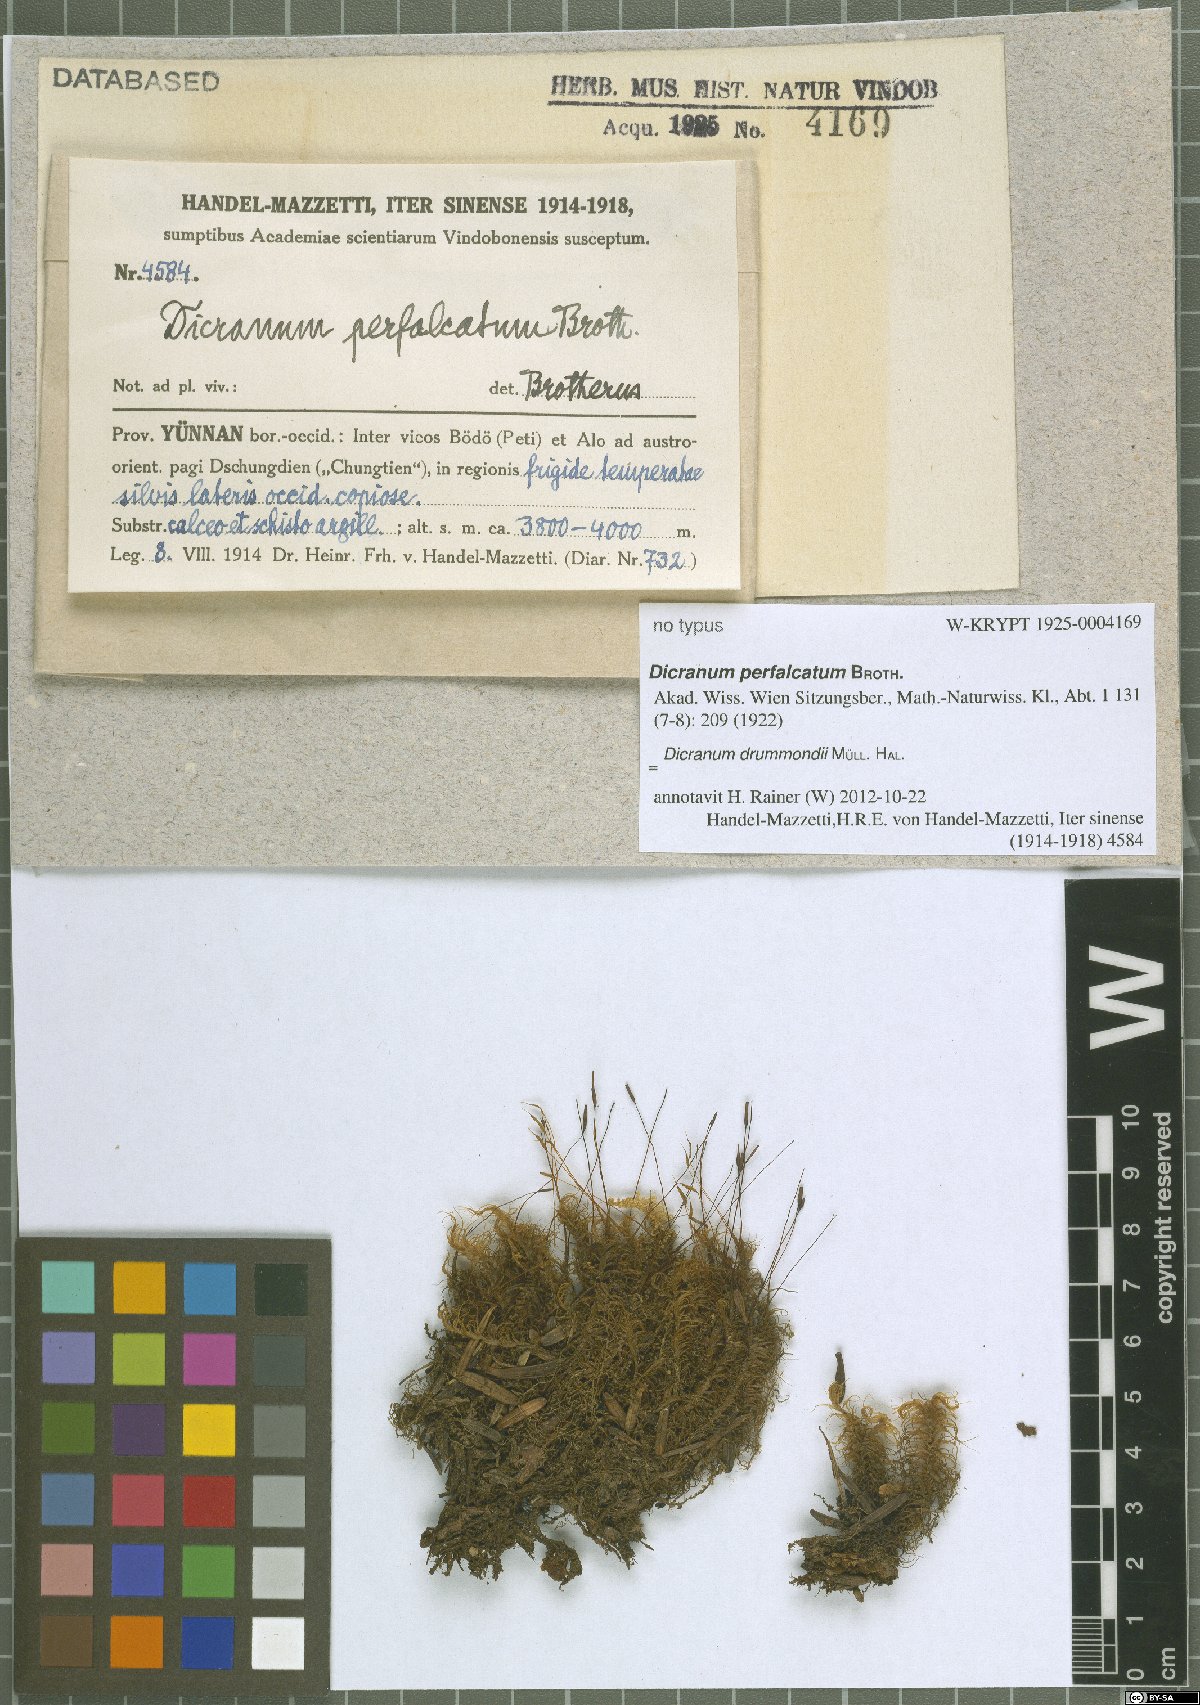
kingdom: Plantae
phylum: Bryophyta
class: Bryopsida
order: Dicranales
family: Dicranaceae
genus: Dicranum
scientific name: Dicranum drummondii
